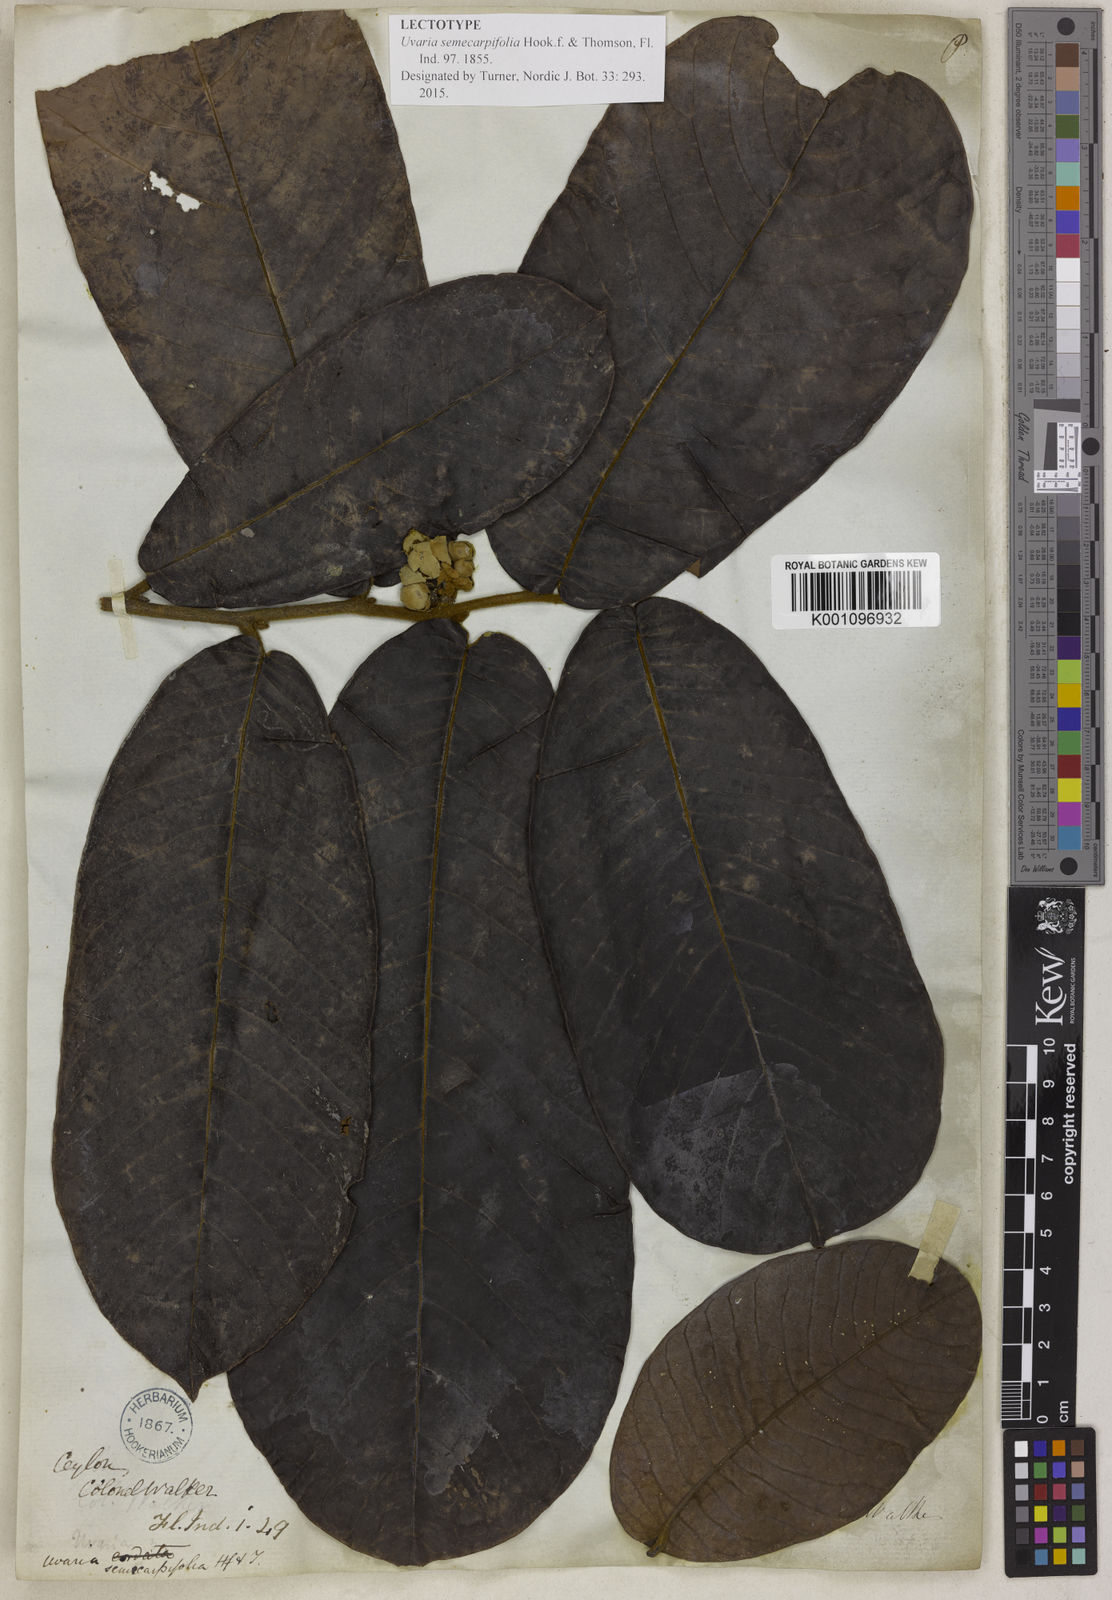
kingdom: Plantae
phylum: Tracheophyta
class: Magnoliopsida
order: Magnoliales
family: Annonaceae
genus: Uvaria
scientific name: Uvaria semecarpifolia
